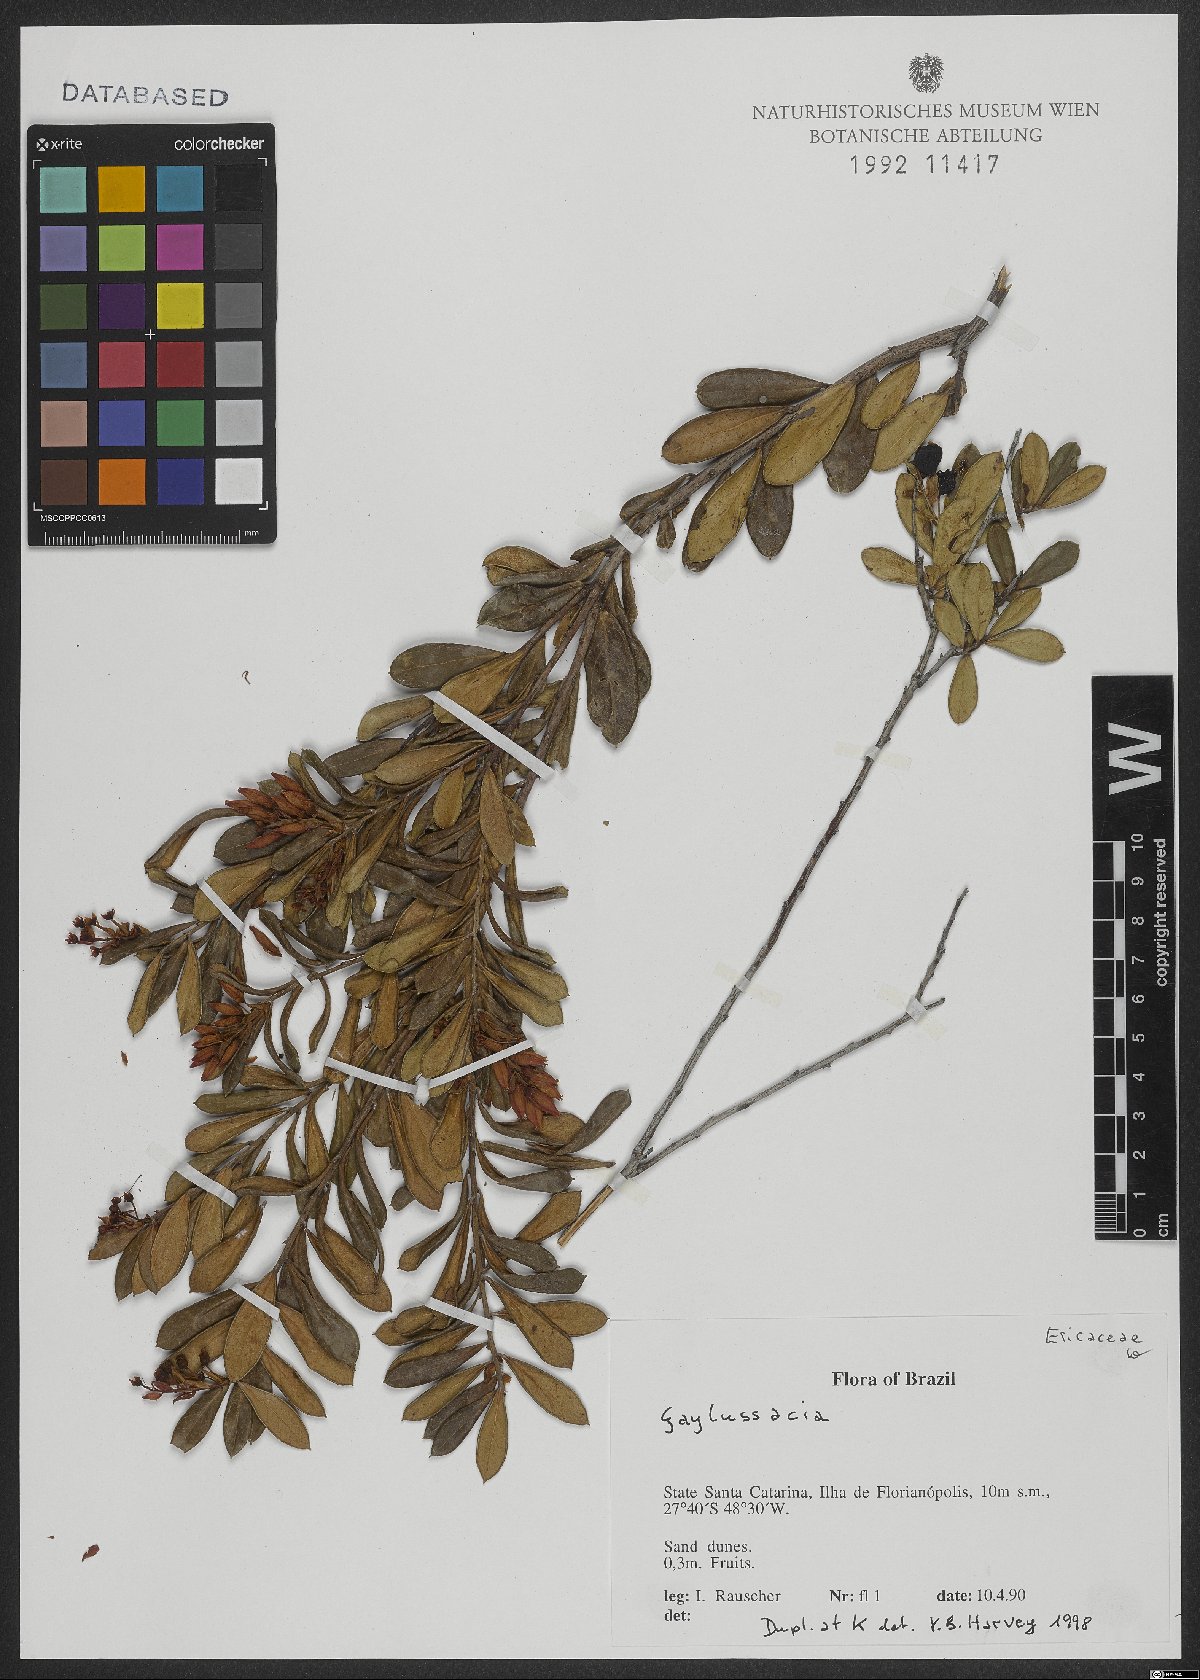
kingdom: Plantae
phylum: Tracheophyta
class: Magnoliopsida
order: Ericales
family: Ericaceae
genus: Gaylussacia
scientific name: Gaylussacia
